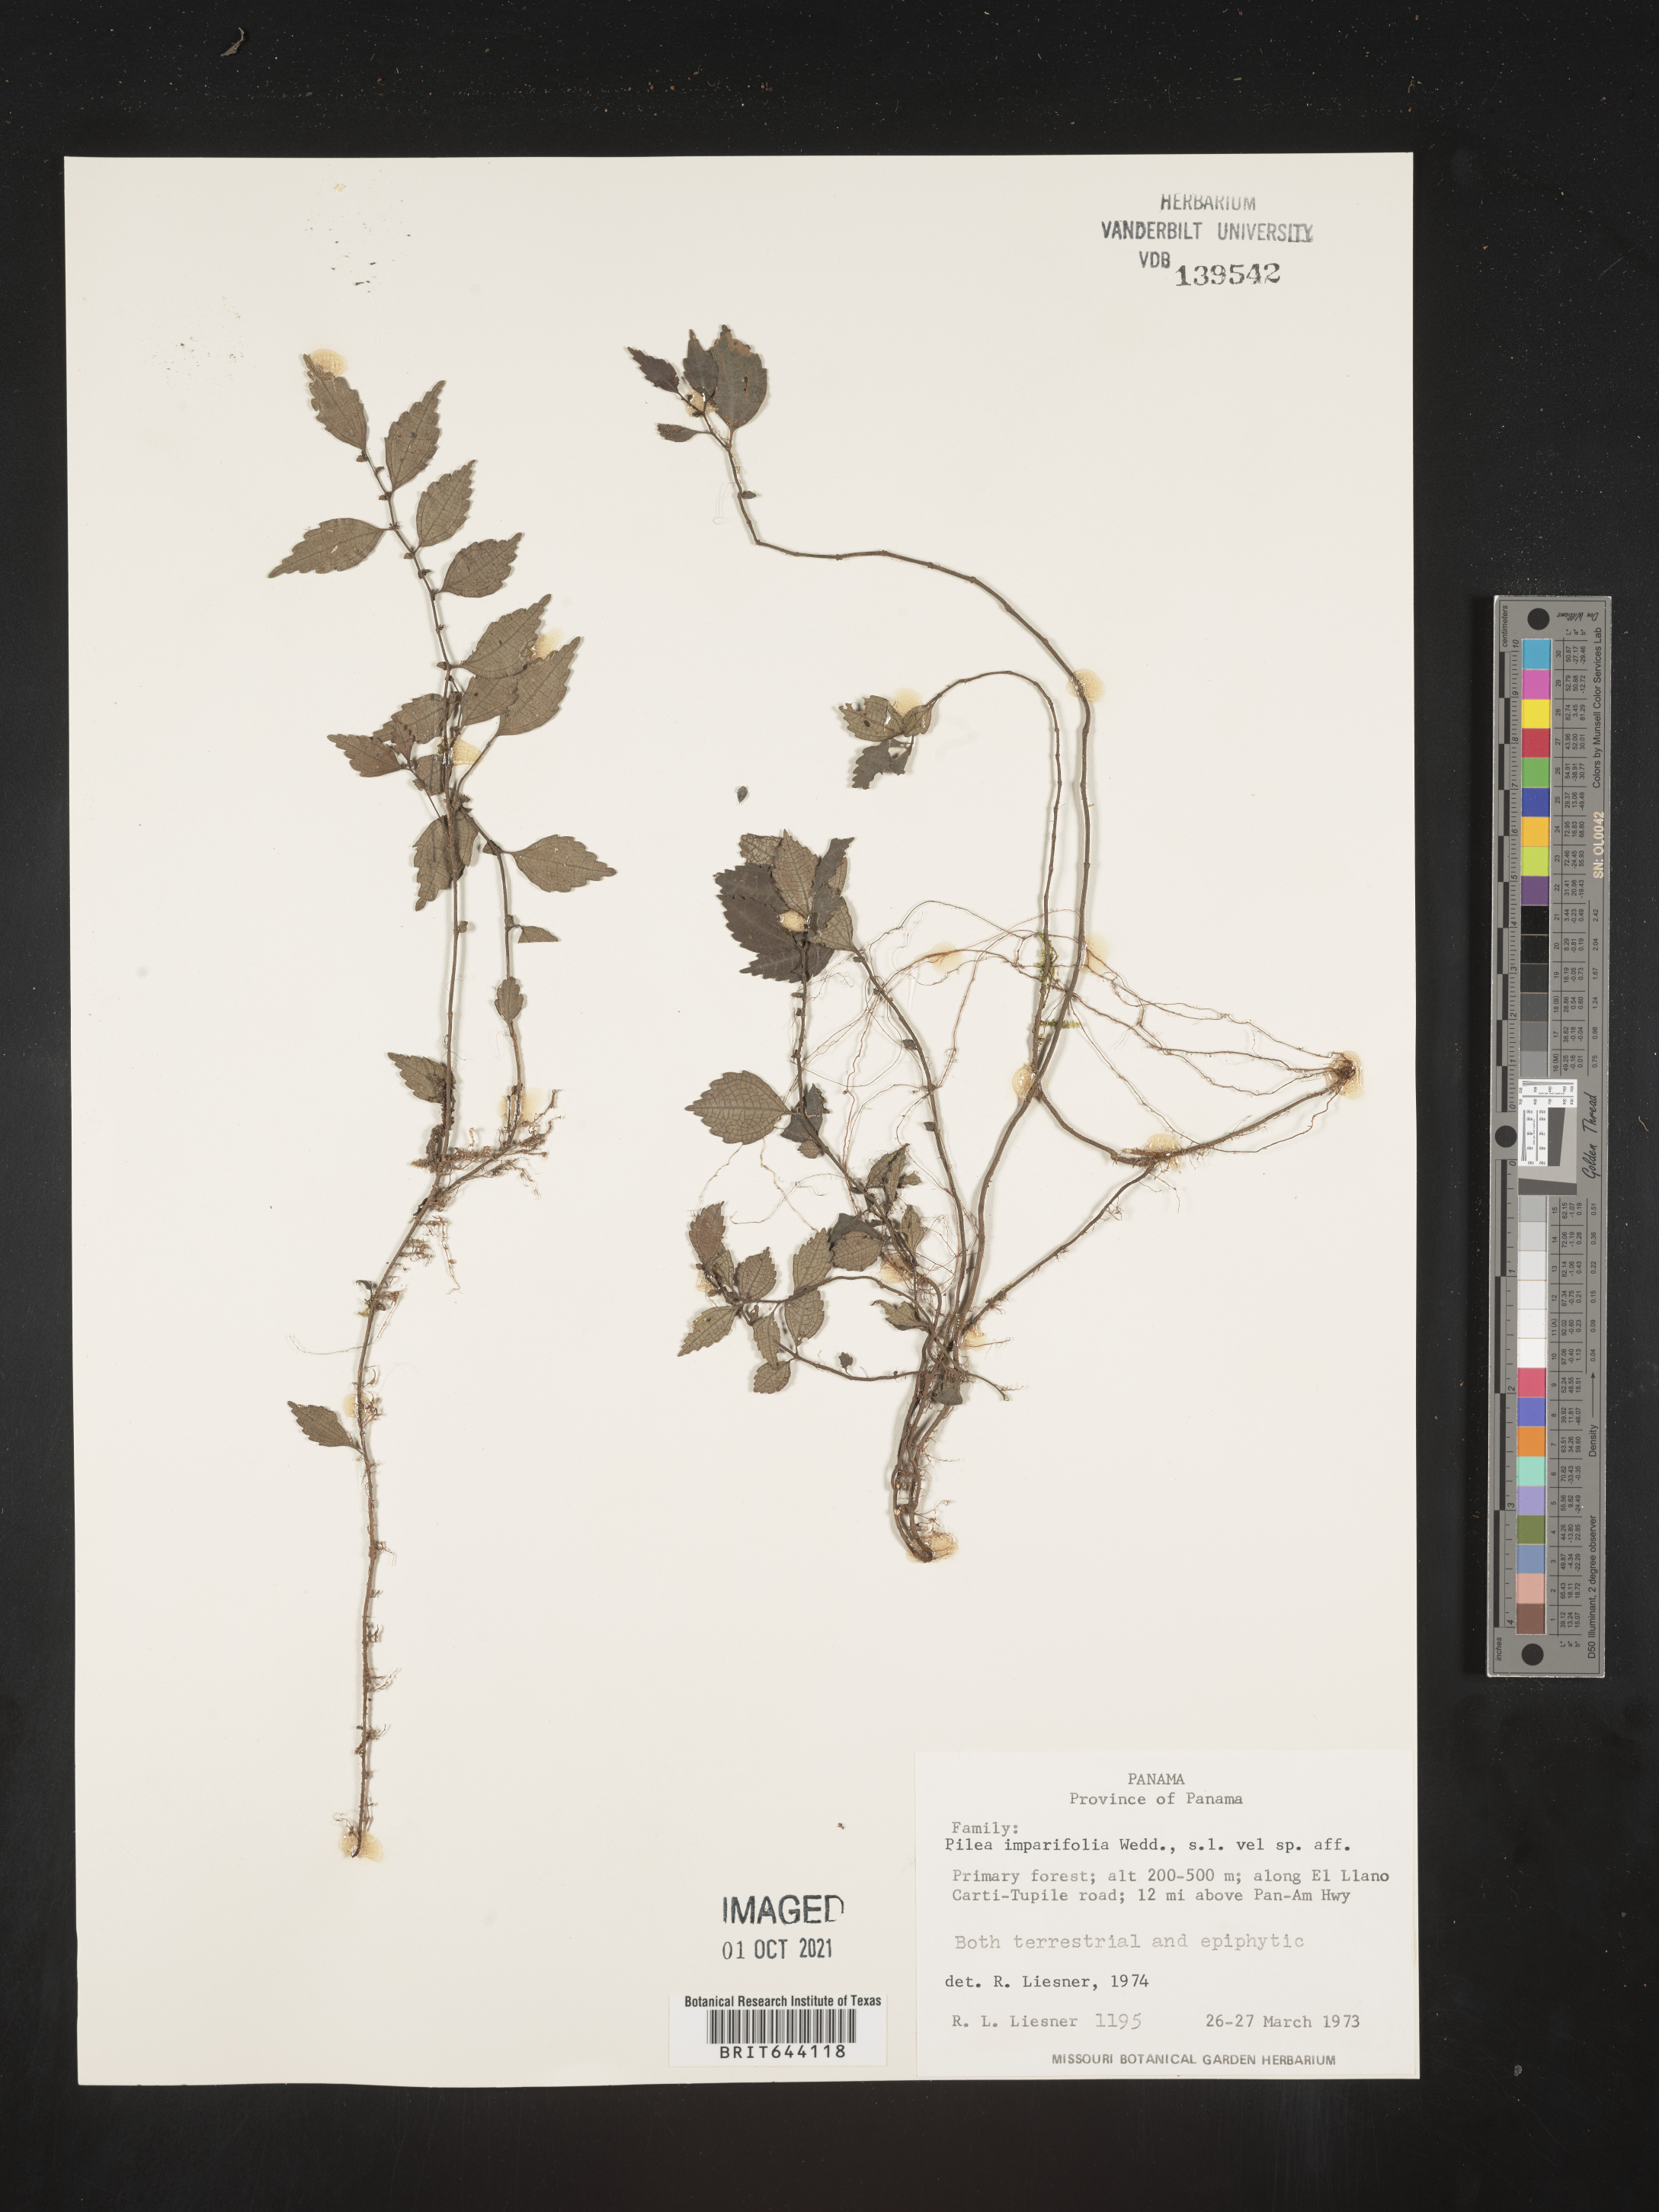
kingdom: Plantae
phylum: Tracheophyta
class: Magnoliopsida
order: Rosales
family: Urticaceae
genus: Pilea
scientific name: Pilea
